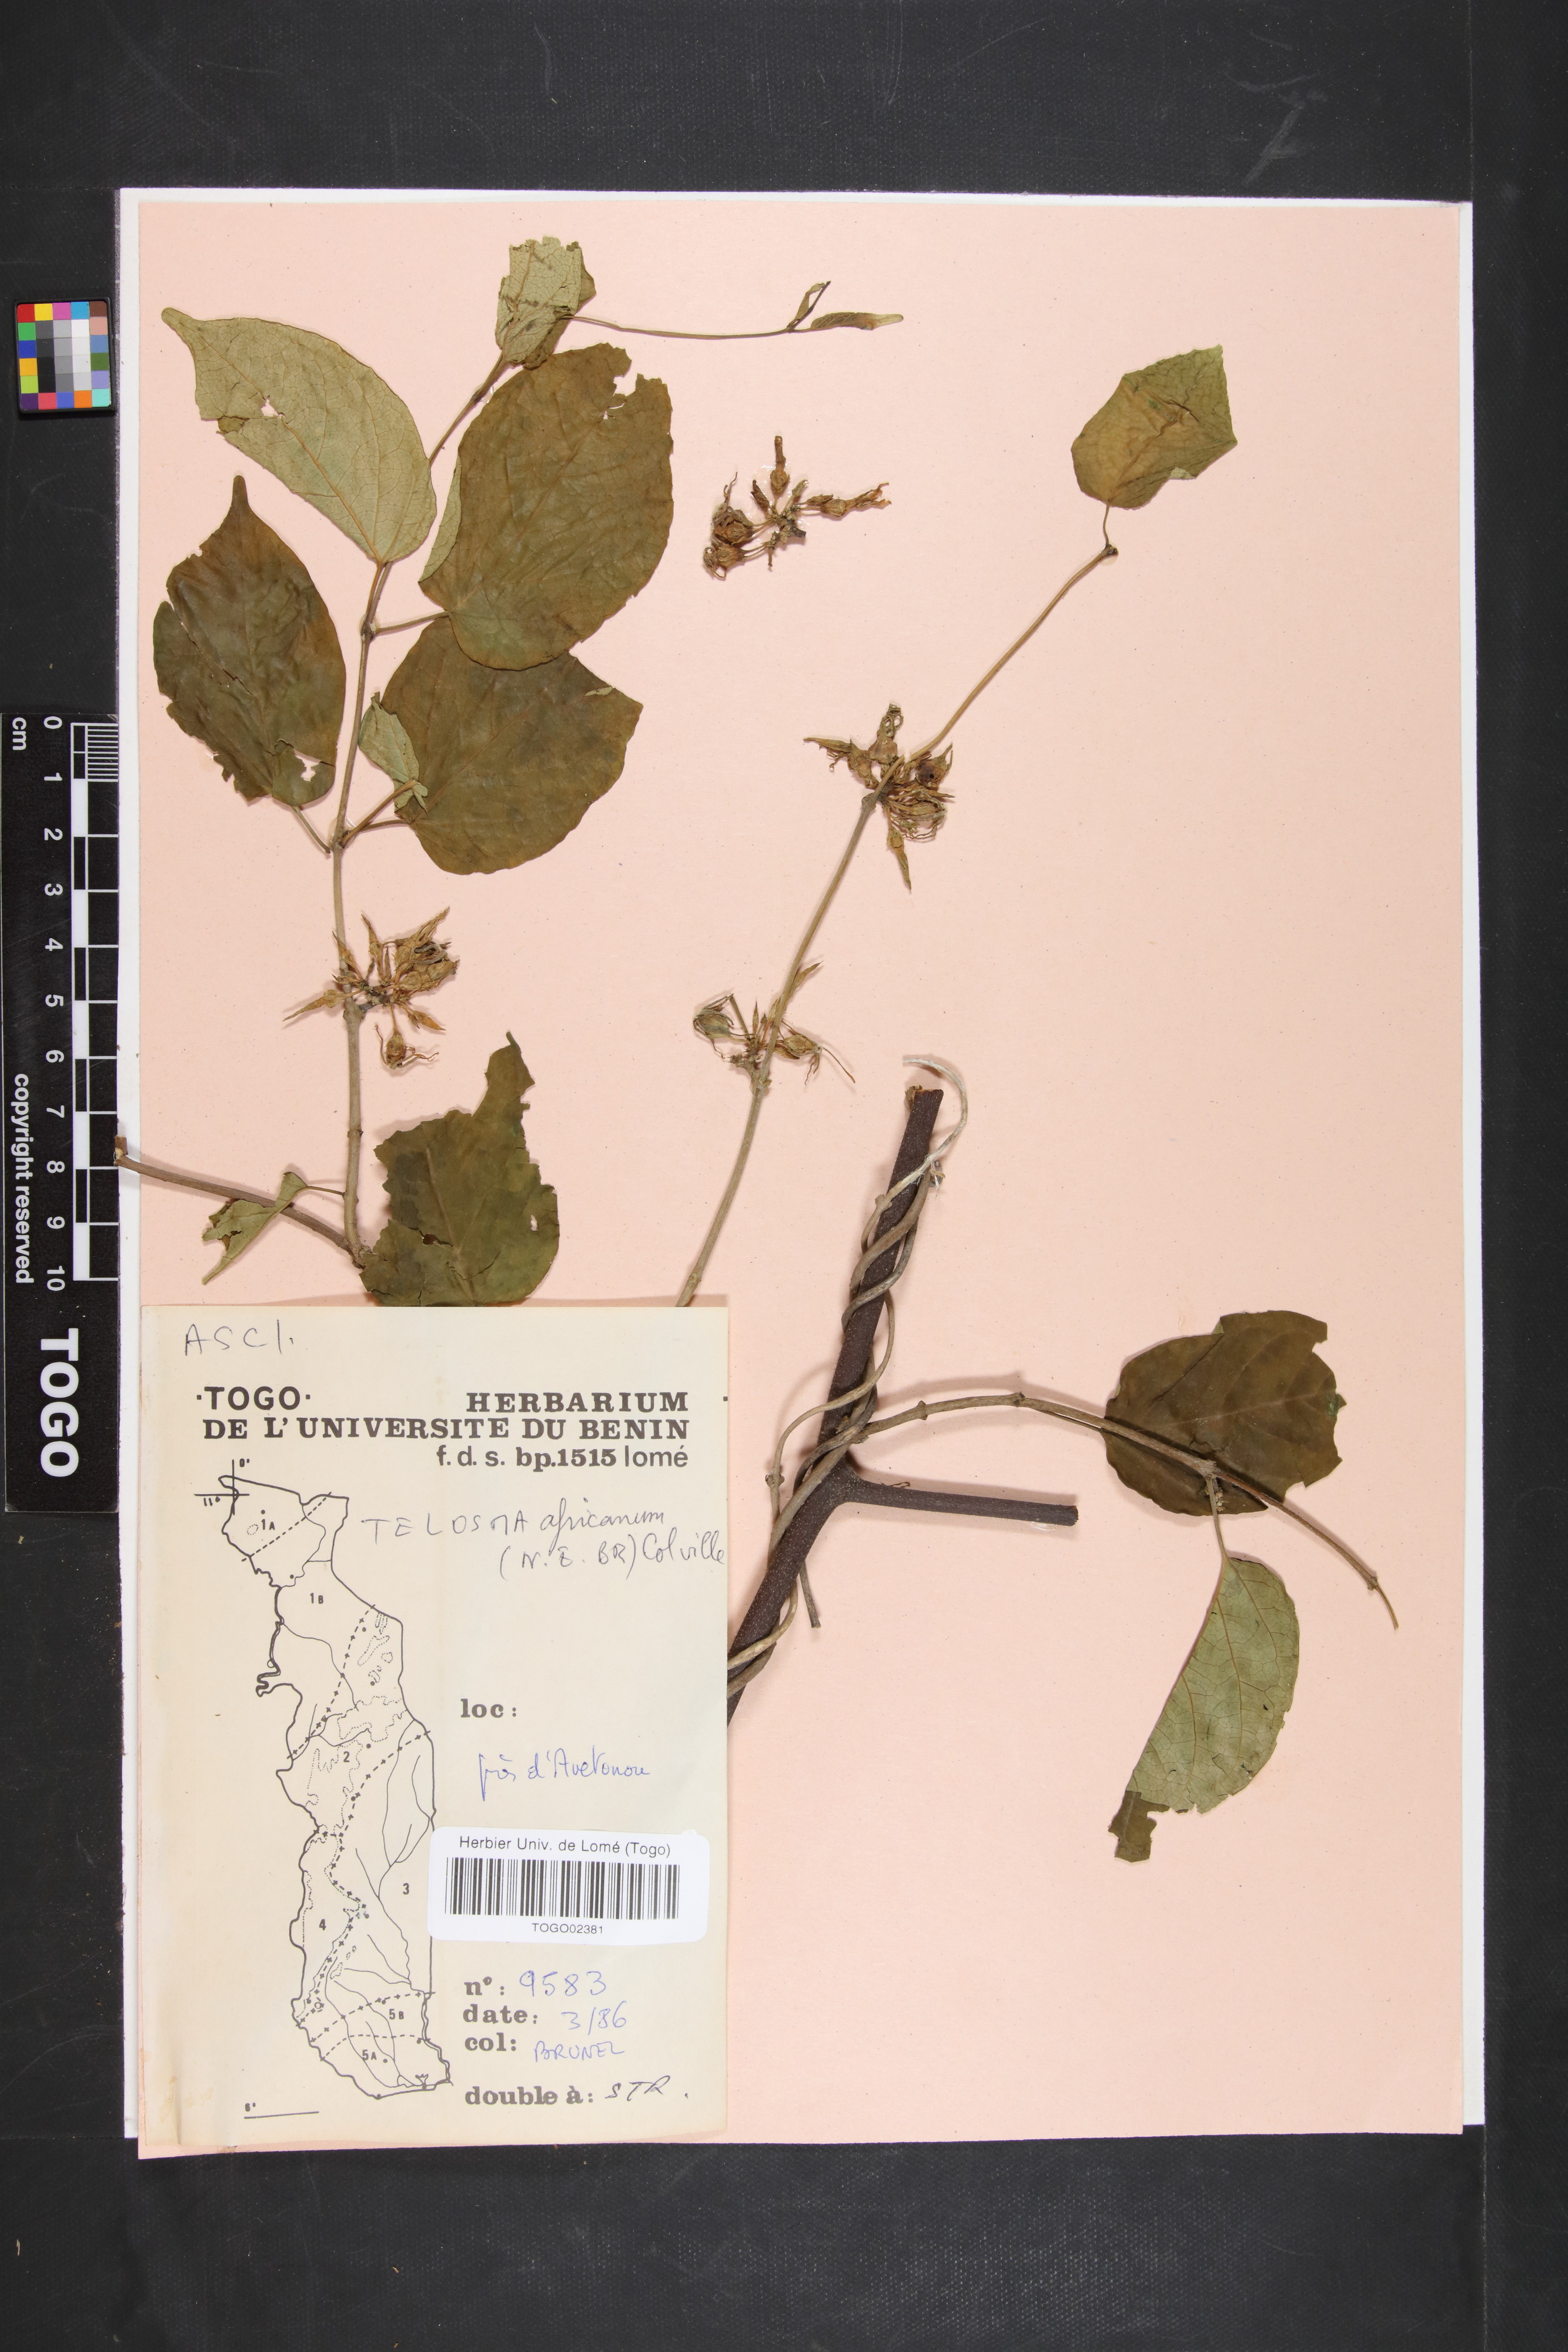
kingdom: Plantae
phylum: Tracheophyta
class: Magnoliopsida
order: Gentianales
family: Apocynaceae
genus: Telosma
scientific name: Telosma africana
